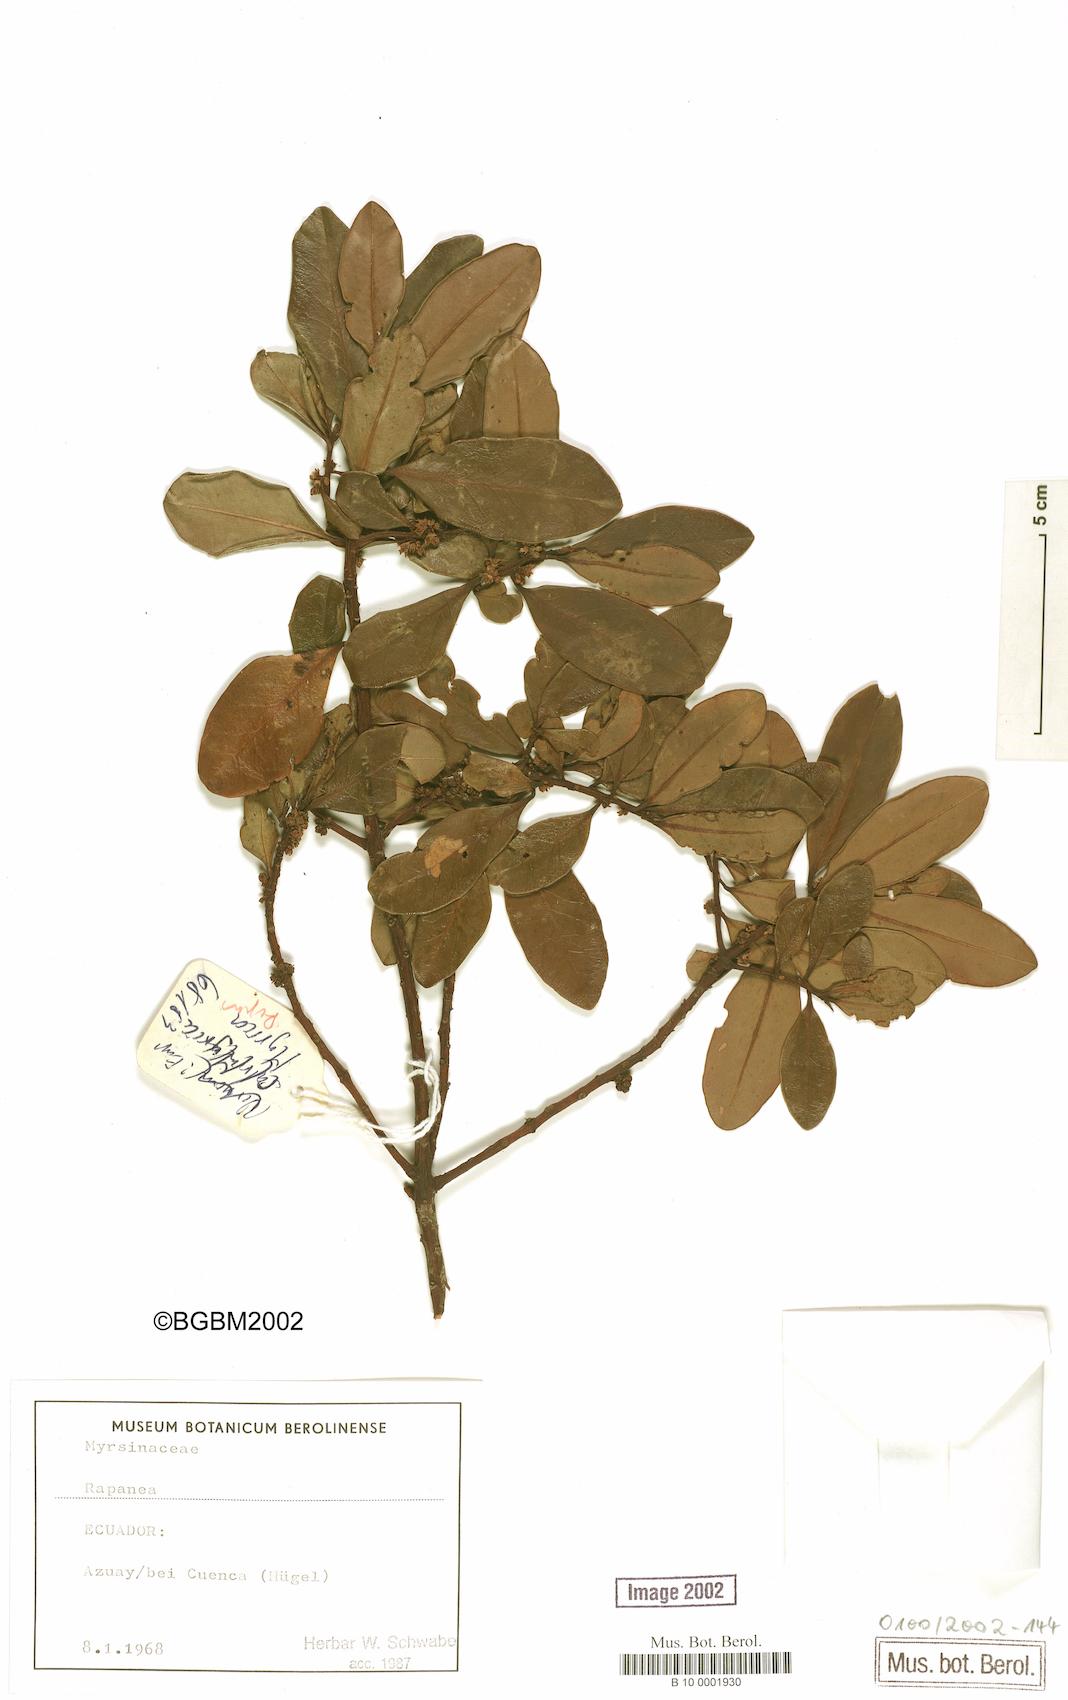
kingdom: Plantae
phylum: Tracheophyta
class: Magnoliopsida
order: Ericales
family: Primulaceae
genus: Myrsine
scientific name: Myrsine
